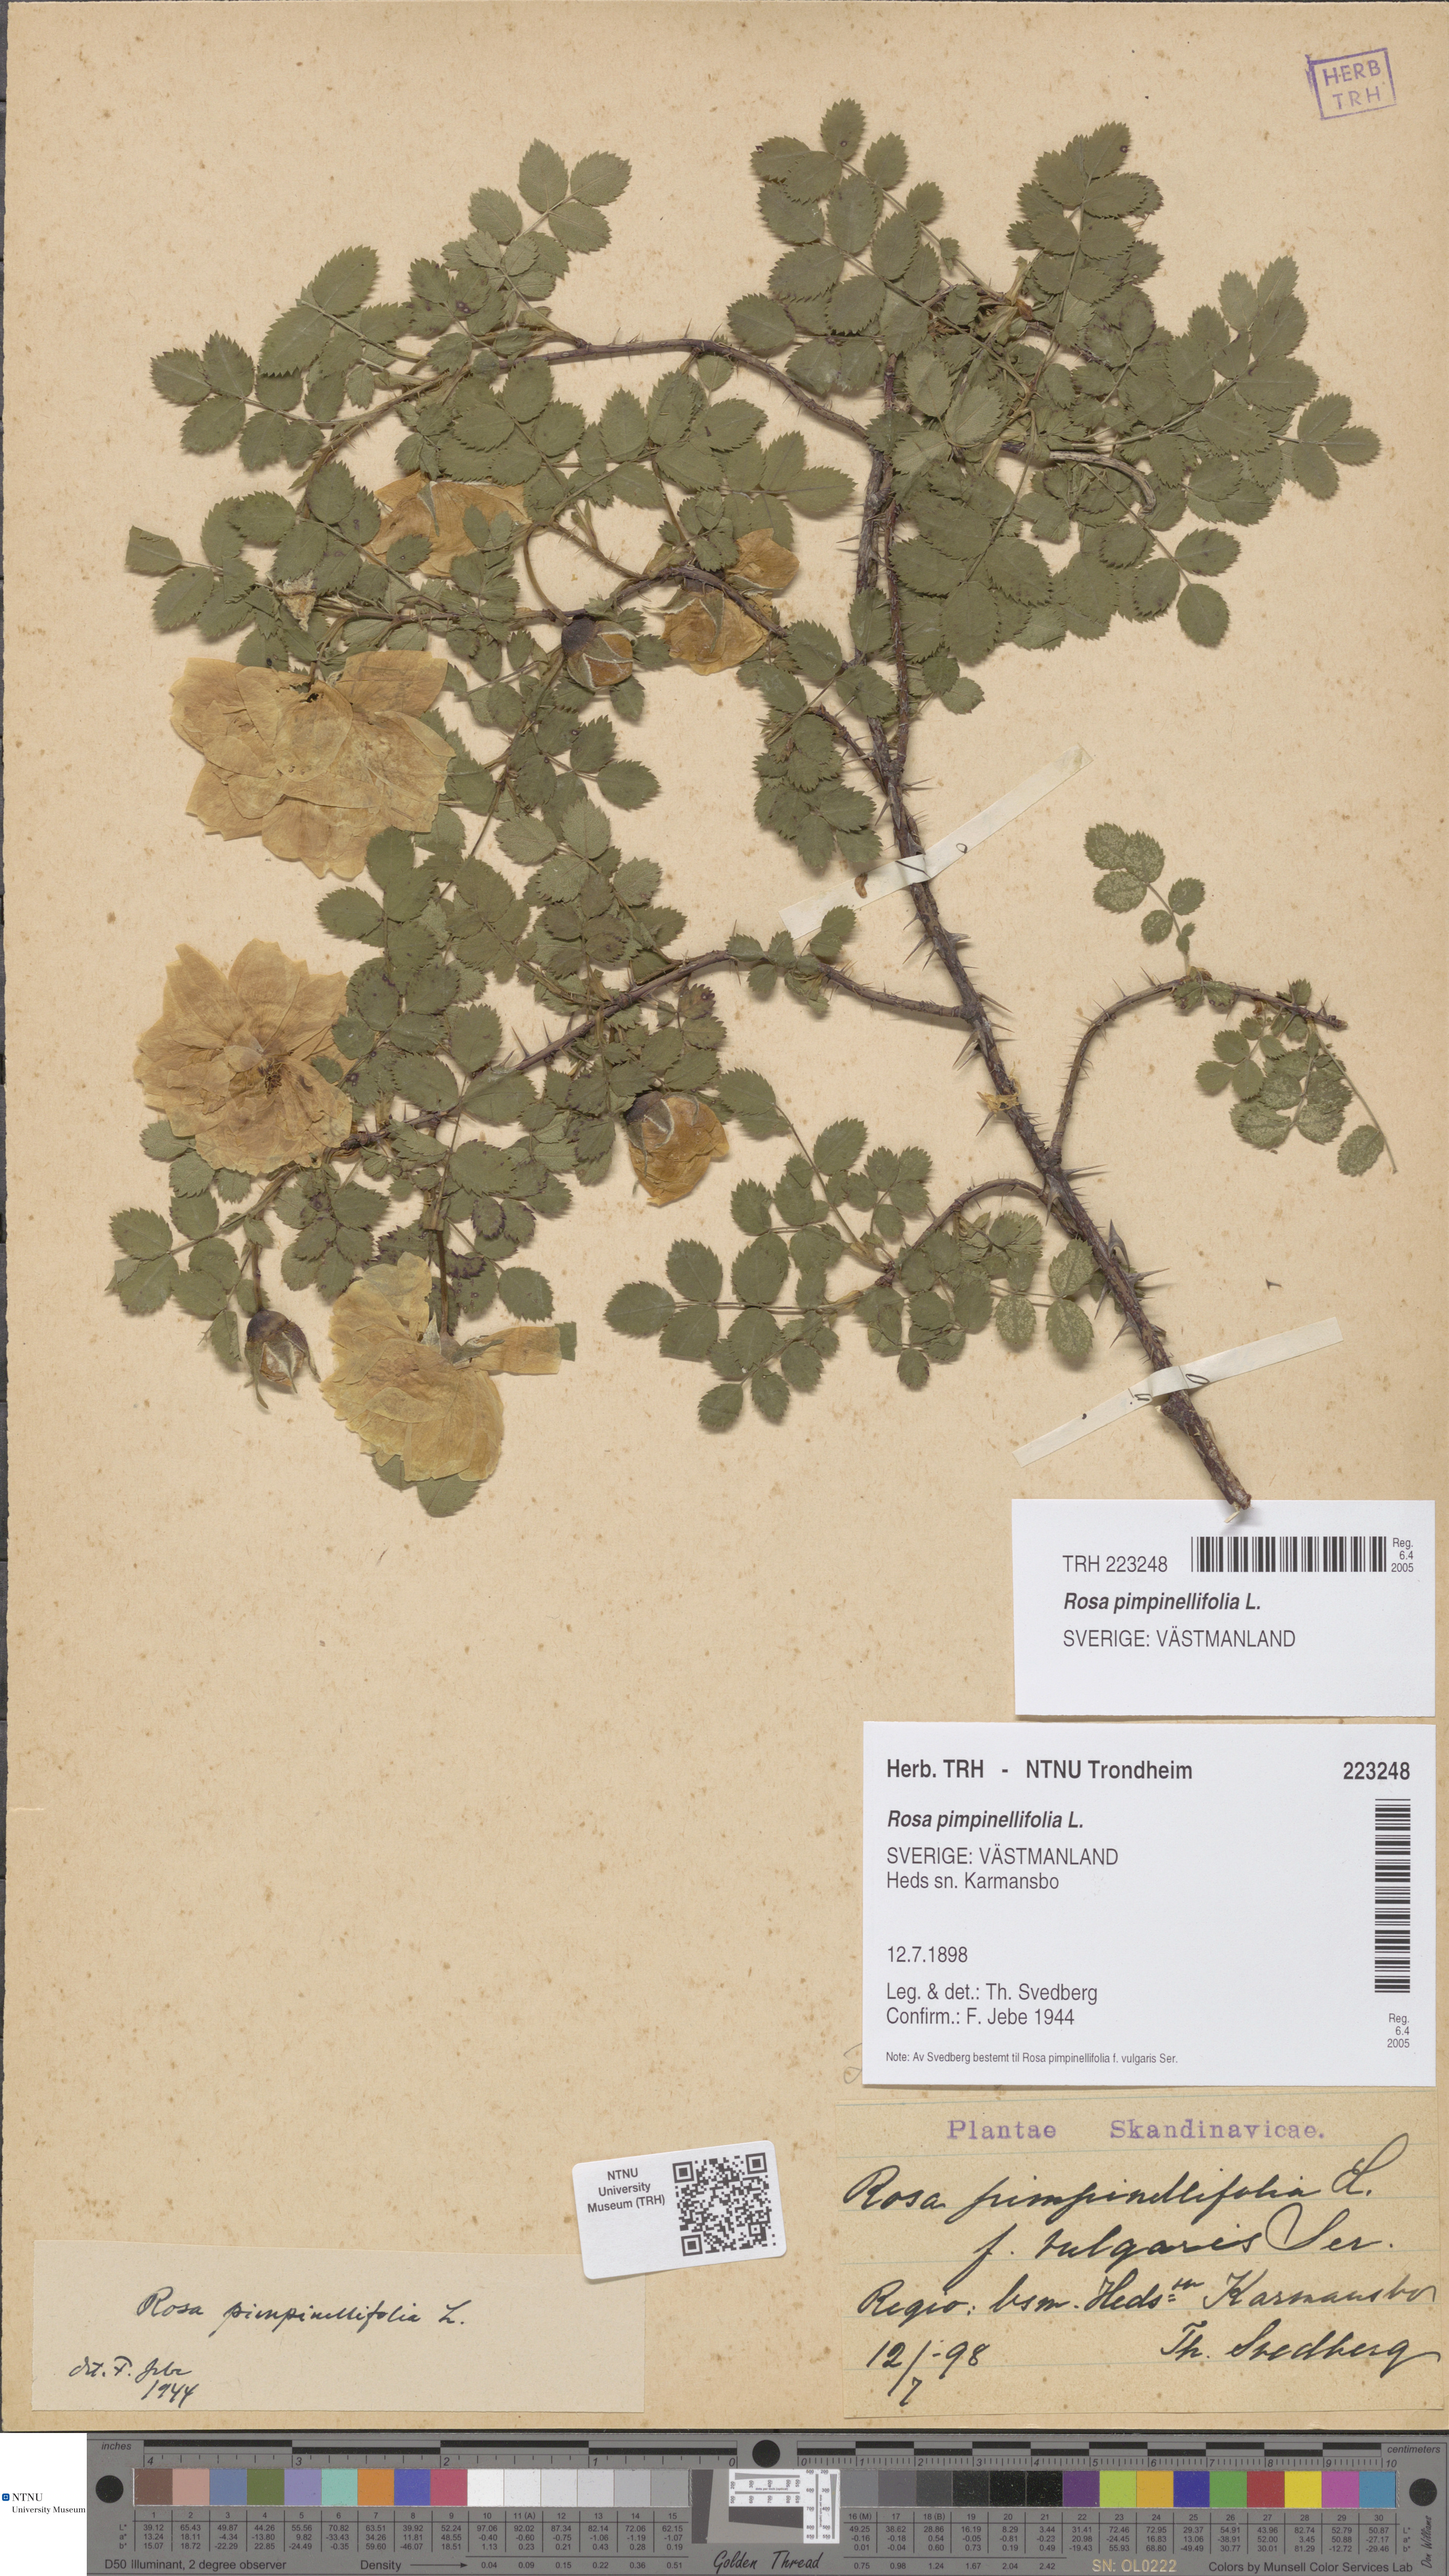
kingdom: Plantae
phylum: Tracheophyta
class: Magnoliopsida
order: Rosales
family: Rosaceae
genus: Rosa
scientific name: Rosa spinosissima
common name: Burnet rose
